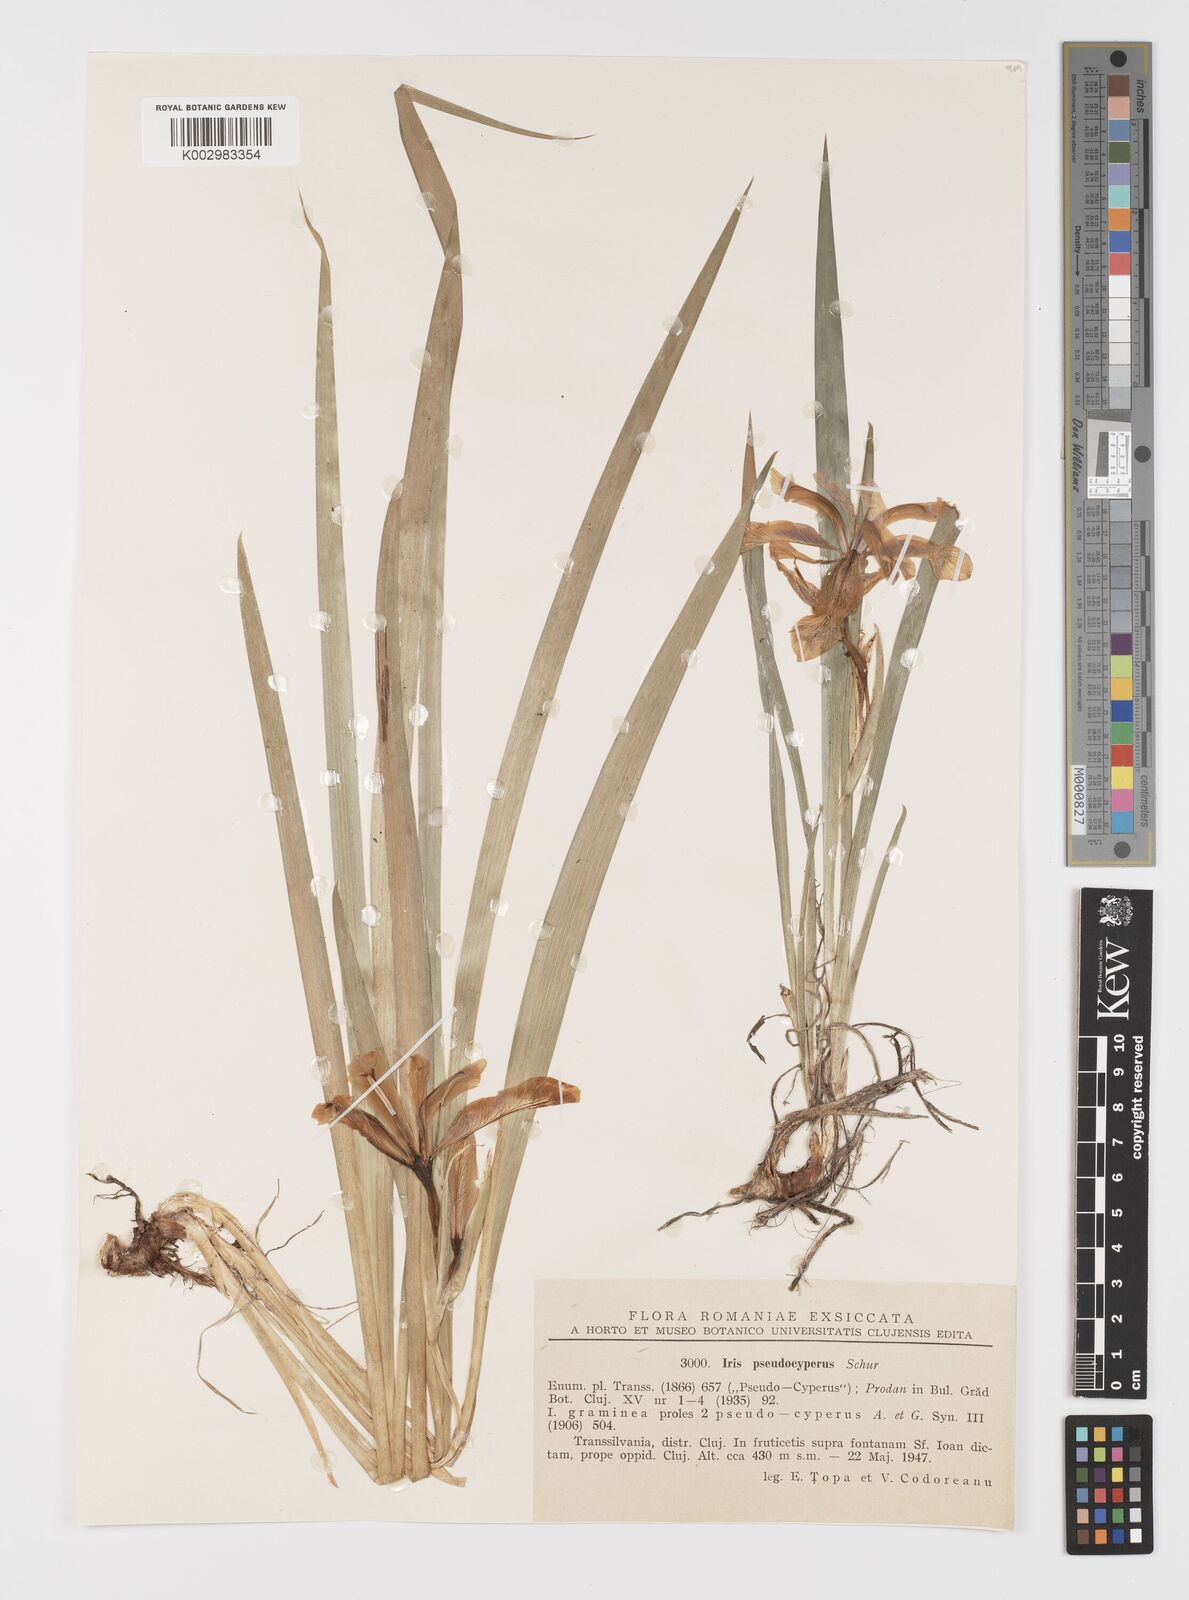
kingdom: Plantae
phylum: Tracheophyta
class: Liliopsida
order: Asparagales
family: Iridaceae
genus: Iris
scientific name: Iris graminea
